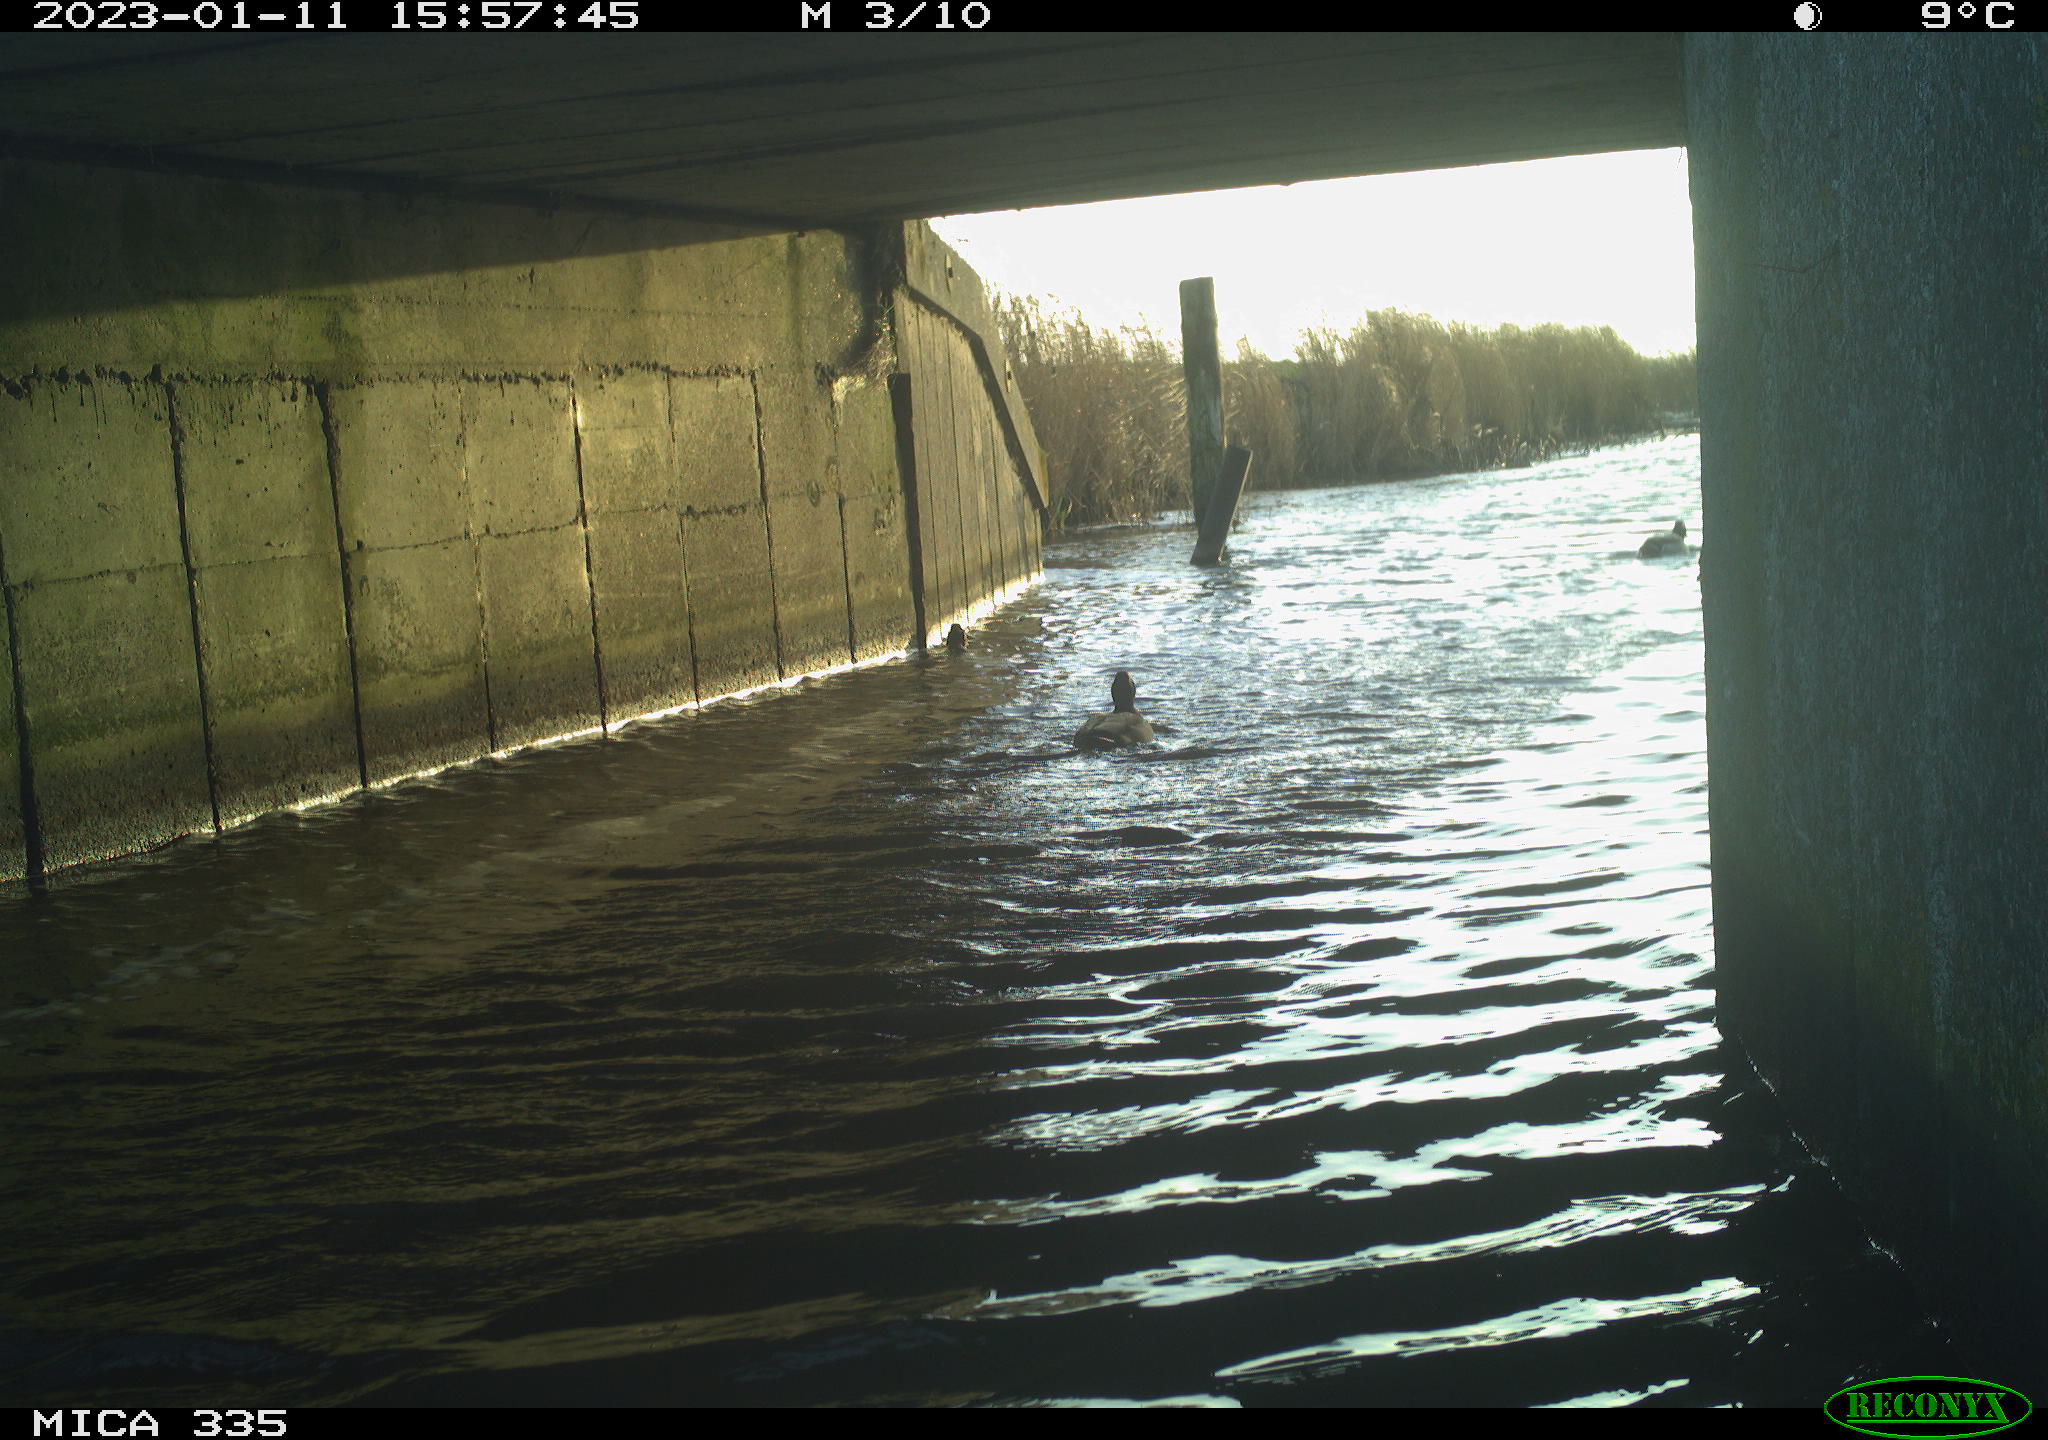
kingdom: Animalia
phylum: Chordata
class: Aves
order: Anseriformes
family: Anatidae
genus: Anas
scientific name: Anas
